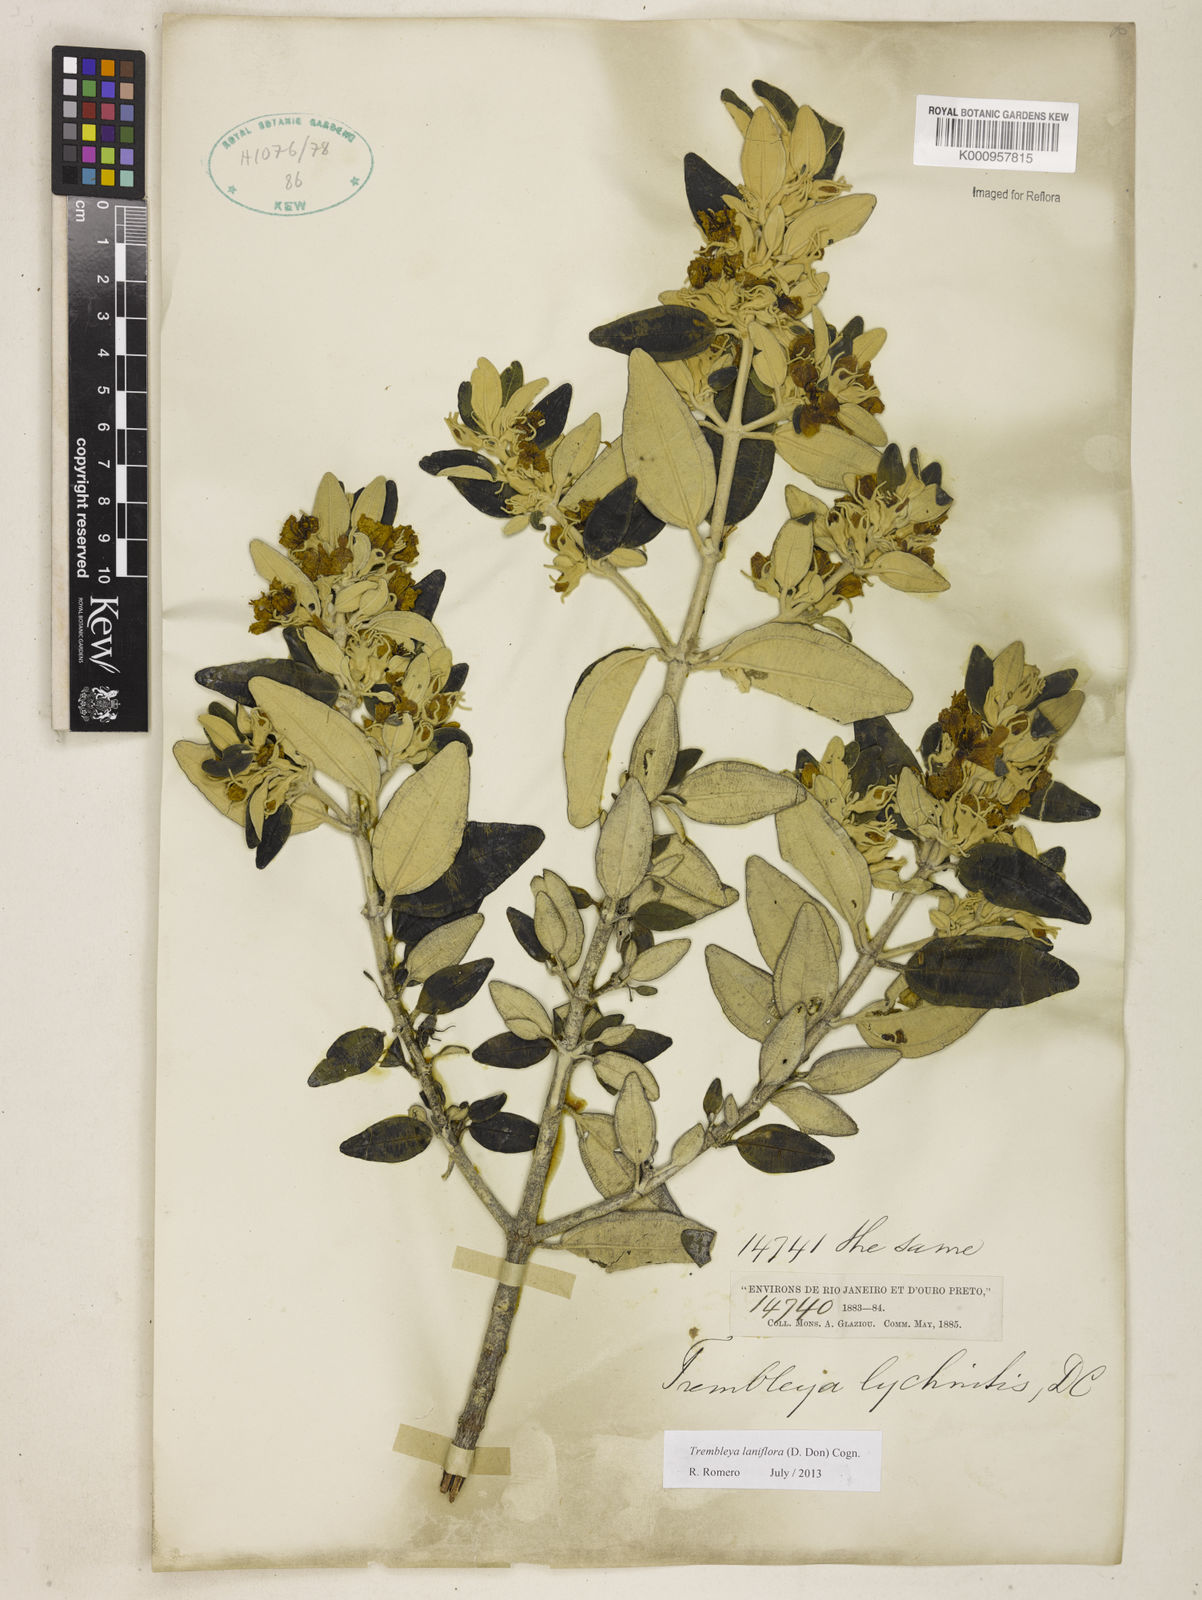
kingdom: Plantae
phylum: Tracheophyta
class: Magnoliopsida
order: Myrtales
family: Melastomataceae
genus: Microlicia
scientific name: Microlicia laniflora
